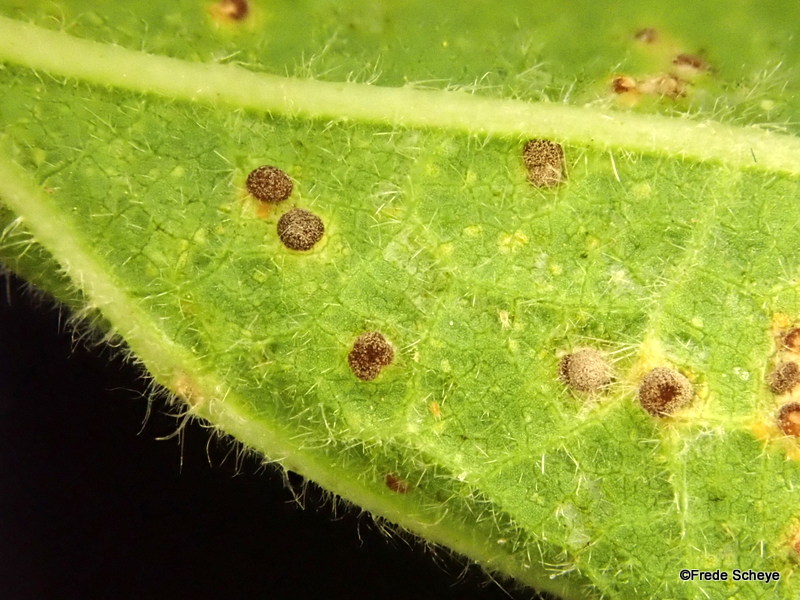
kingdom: Fungi
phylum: Basidiomycota
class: Pucciniomycetes
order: Pucciniales
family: Pucciniaceae
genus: Puccinia
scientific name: Puccinia malvacearum
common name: stokrose-tvecellerust
